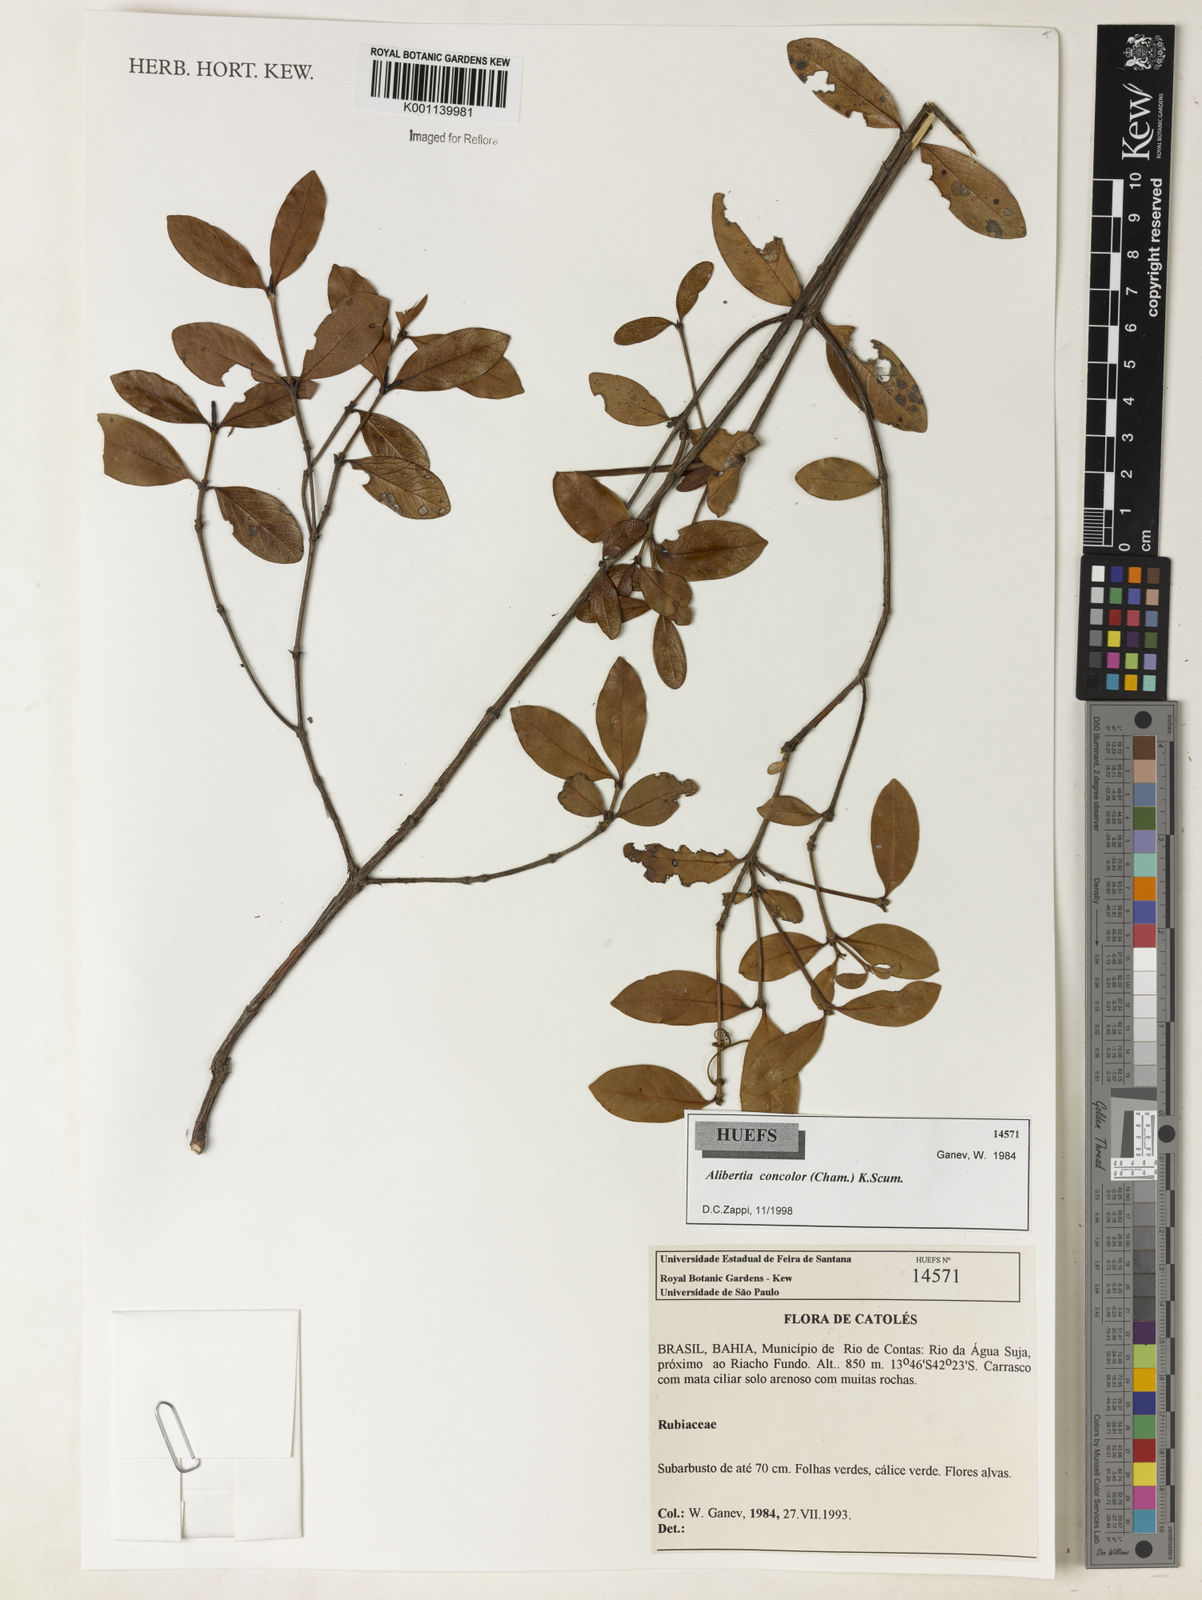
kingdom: Plantae
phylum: Tracheophyta
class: Magnoliopsida
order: Gentianales
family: Rubiaceae
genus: Cordiera
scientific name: Cordiera concolor
